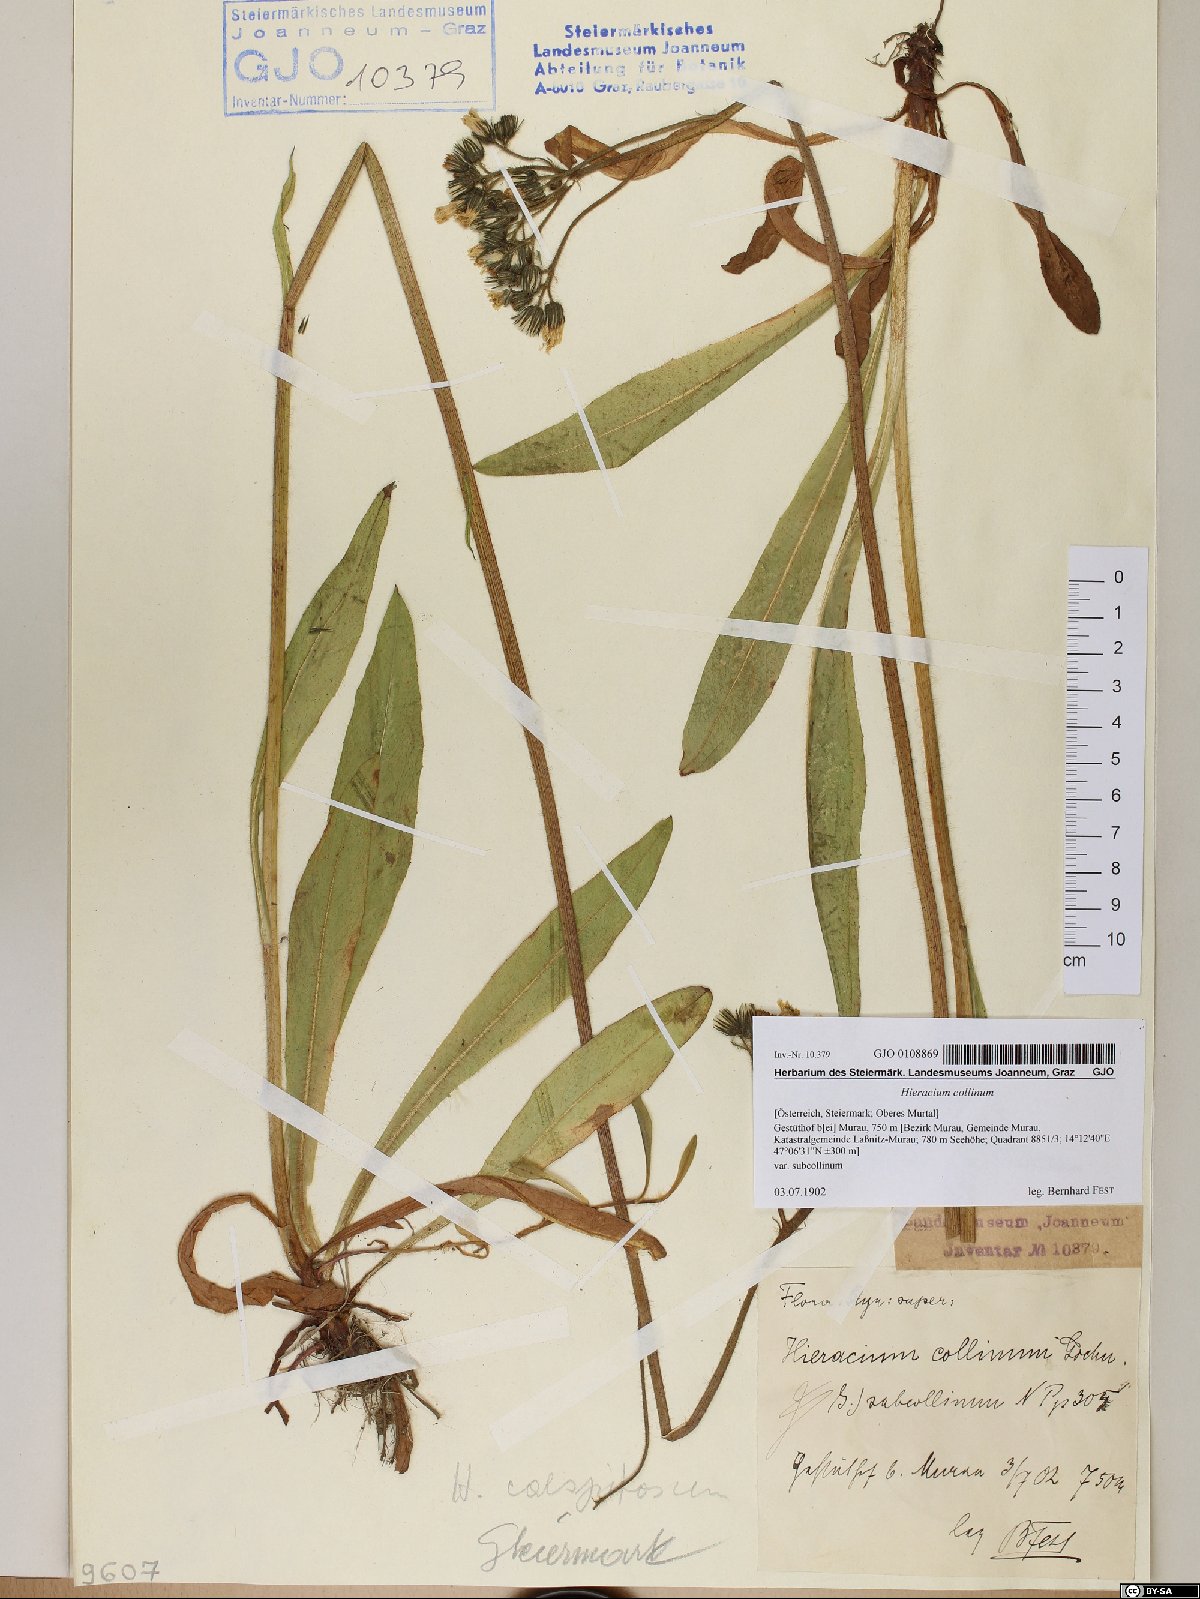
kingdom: Plantae
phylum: Tracheophyta
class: Magnoliopsida
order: Asterales
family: Asteraceae
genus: Pilosella
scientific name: Pilosella cymosa
